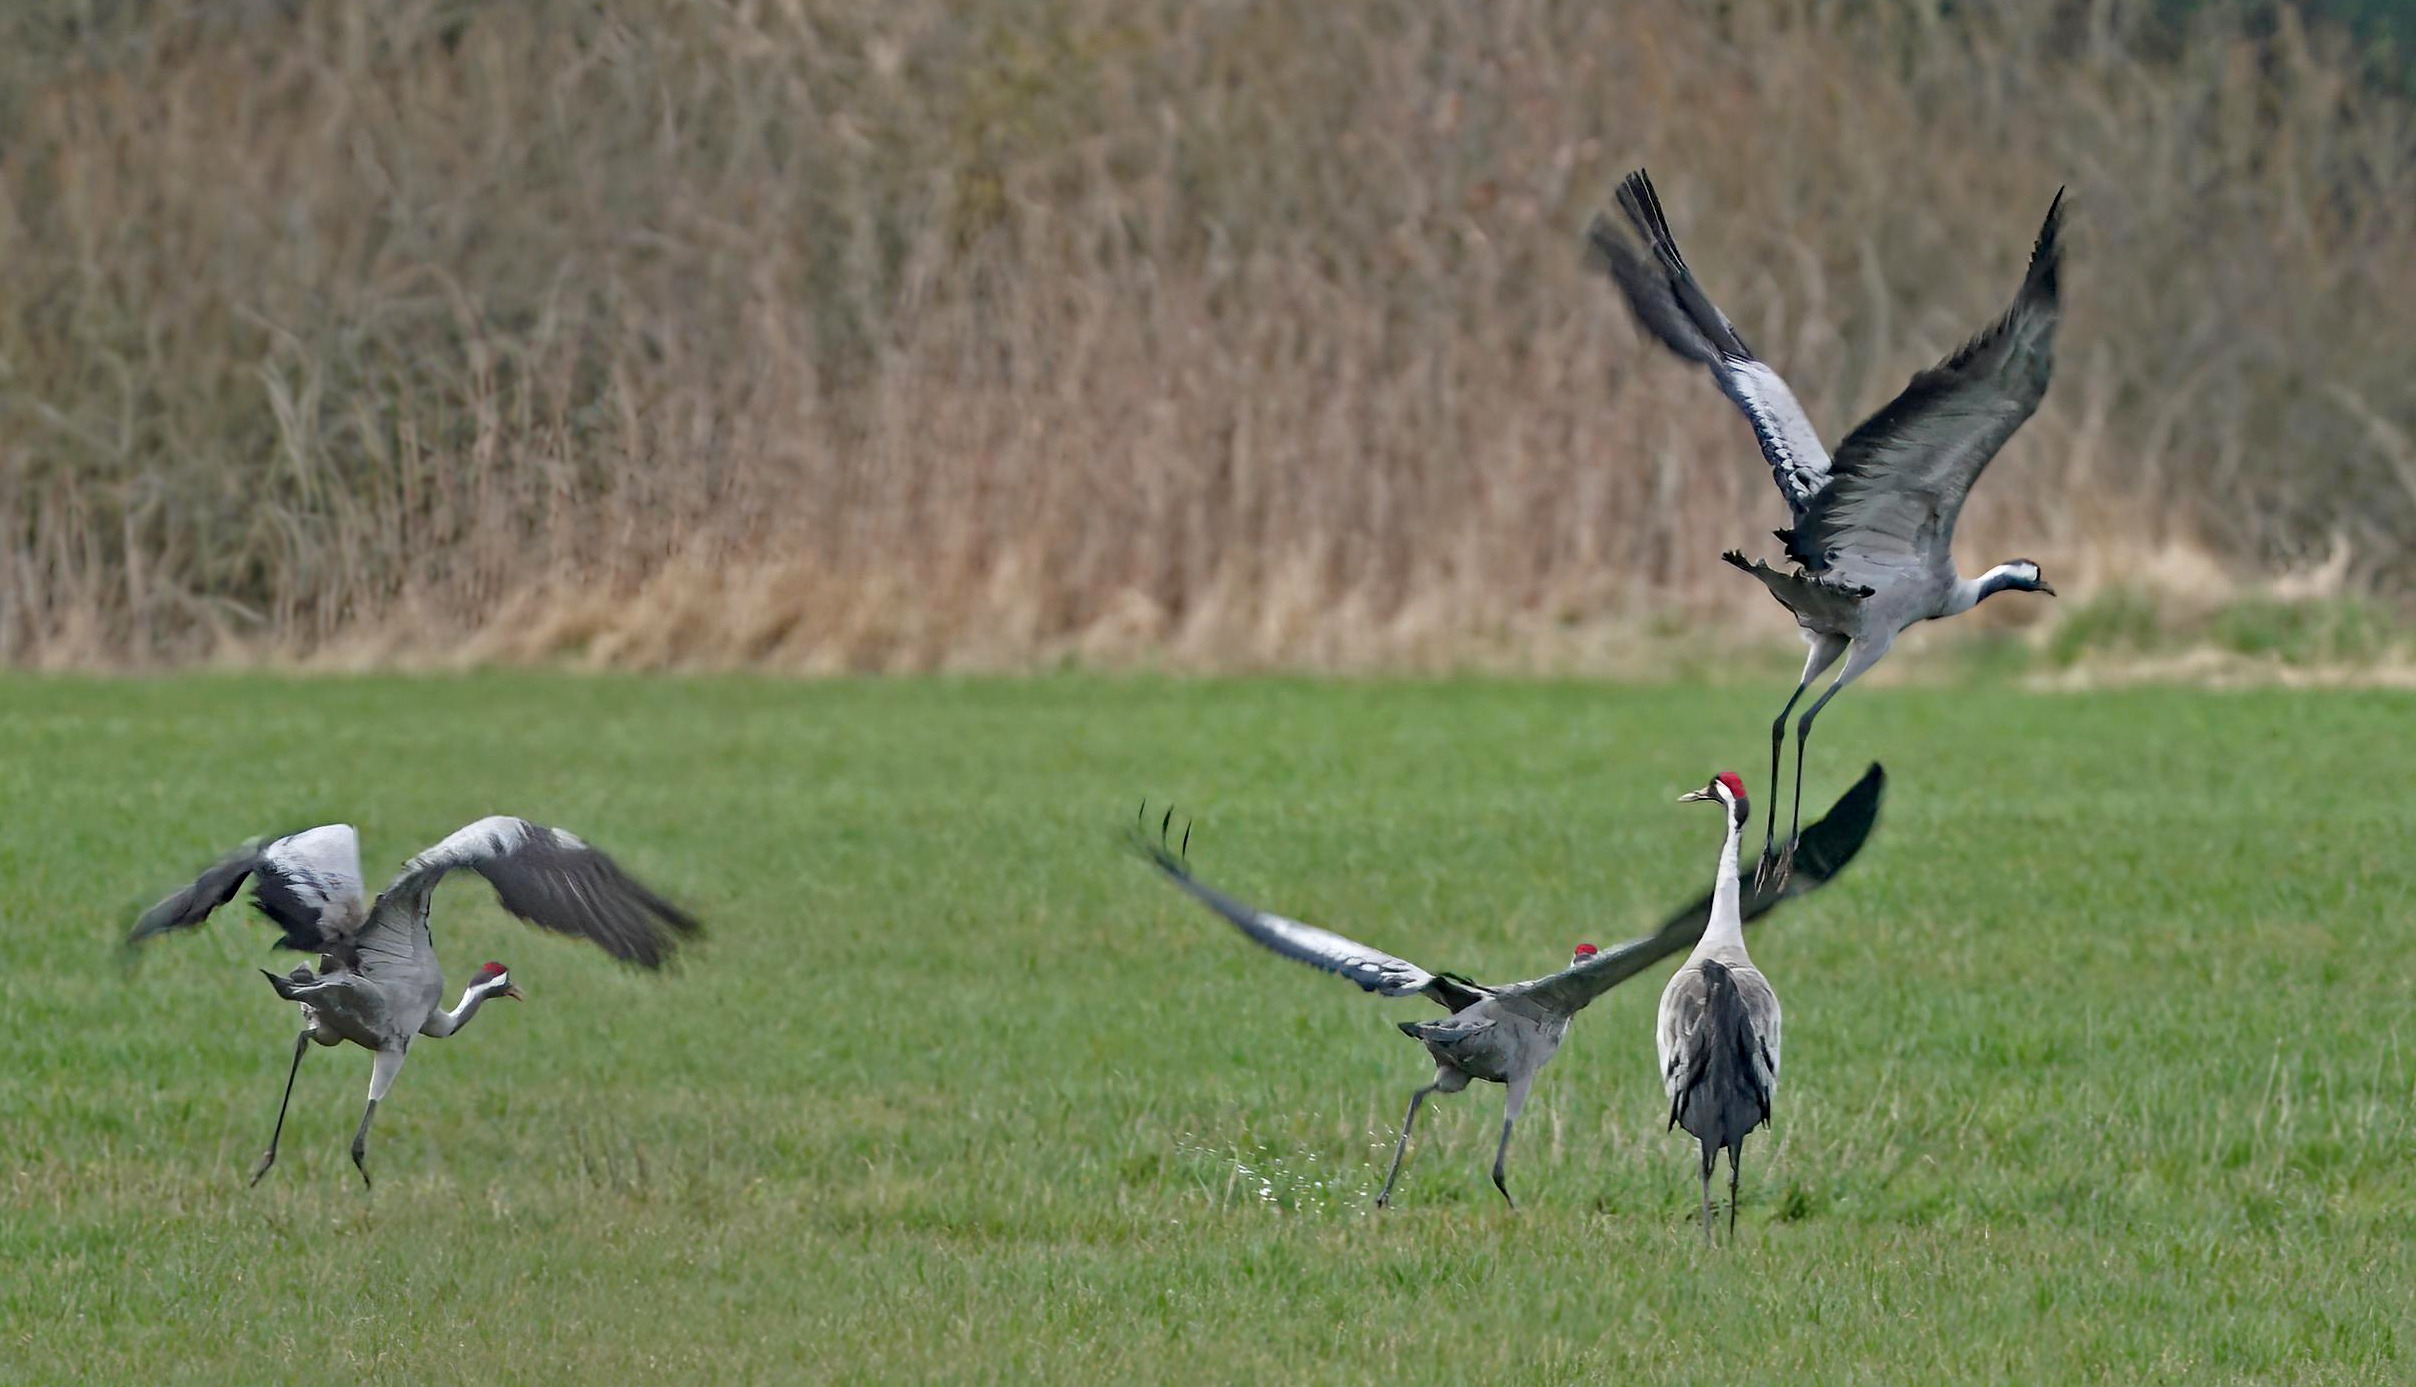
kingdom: Animalia
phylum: Chordata
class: Aves
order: Gruiformes
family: Gruidae
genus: Grus
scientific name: Grus grus
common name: Trane
